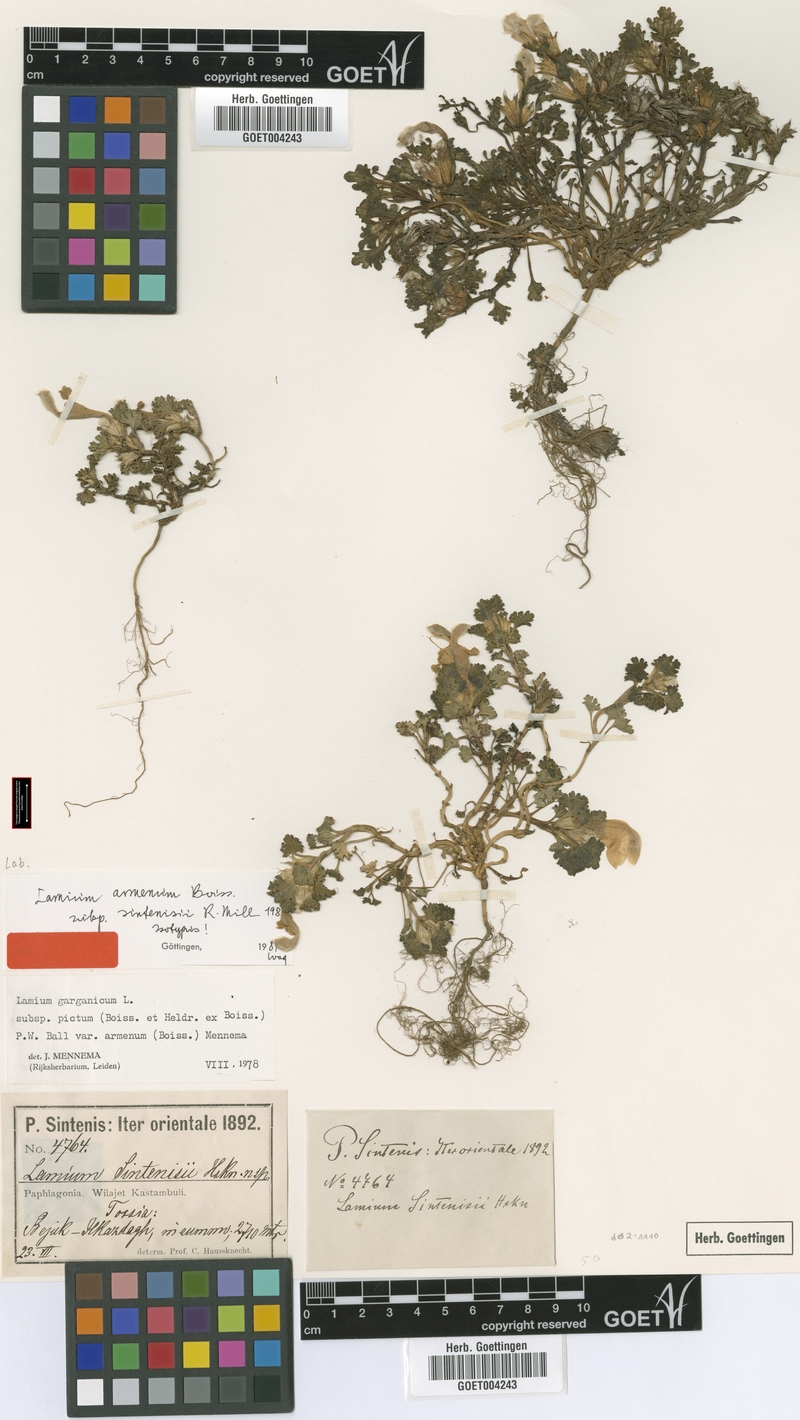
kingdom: Plantae
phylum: Tracheophyta
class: Magnoliopsida
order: Lamiales
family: Lamiaceae
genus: Lamium
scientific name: Lamium garganicum
